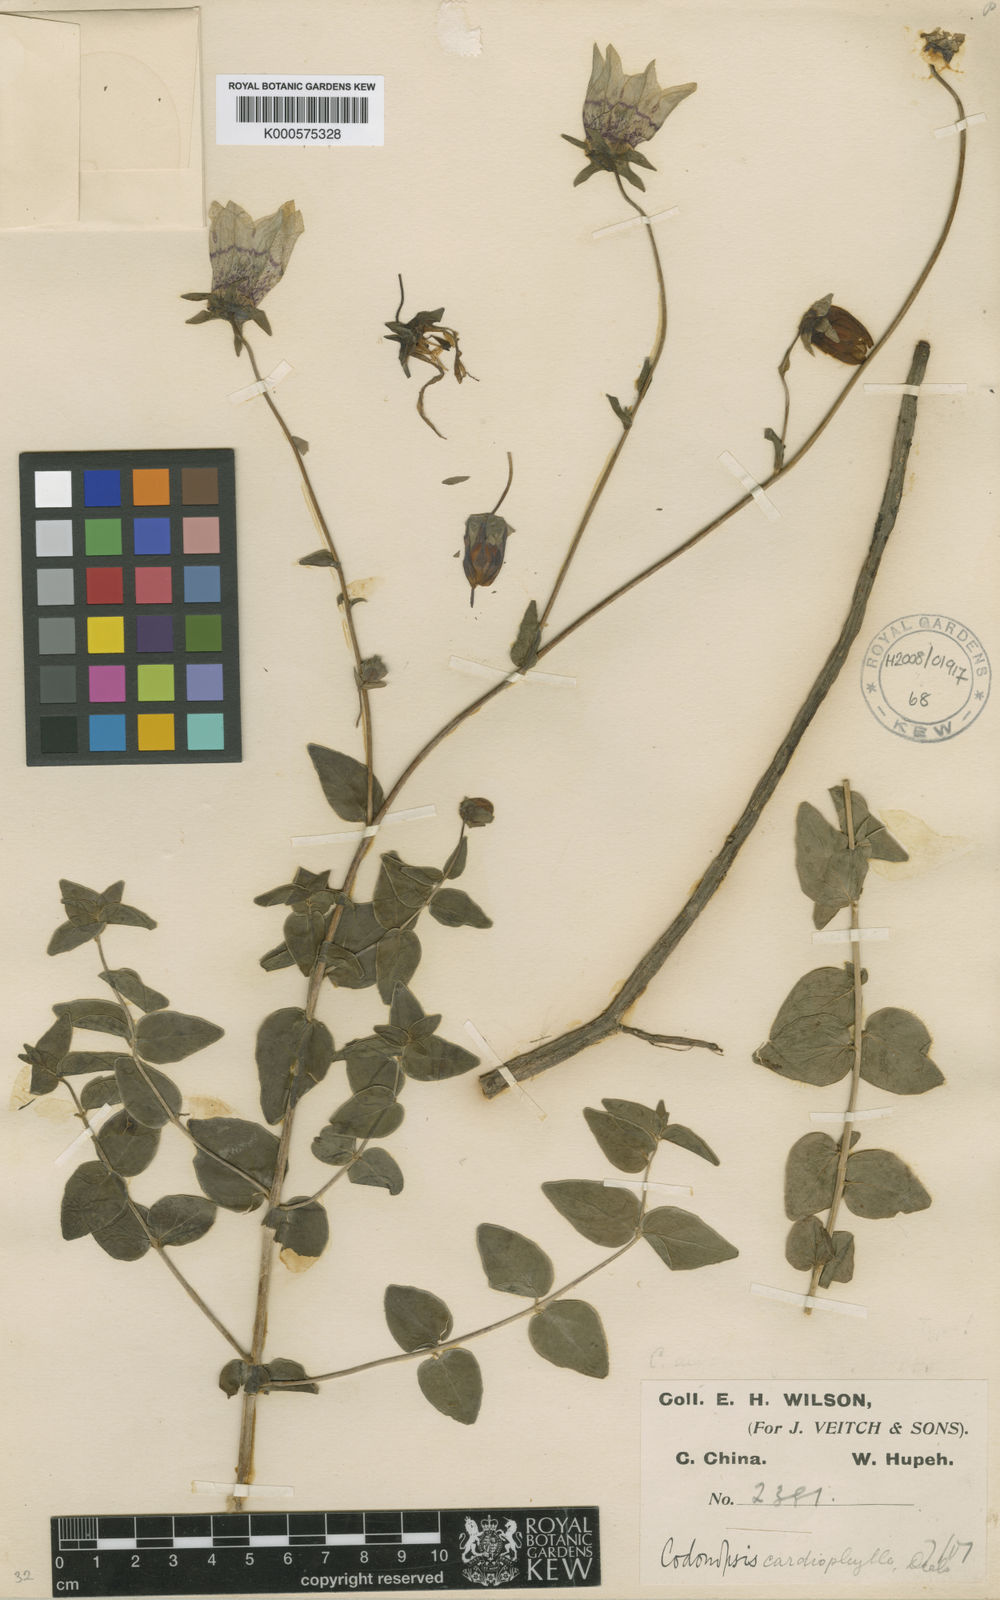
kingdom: Plantae
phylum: Tracheophyta
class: Magnoliopsida
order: Asterales
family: Campanulaceae
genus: Codonopsis
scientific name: Codonopsis cardiophylla
